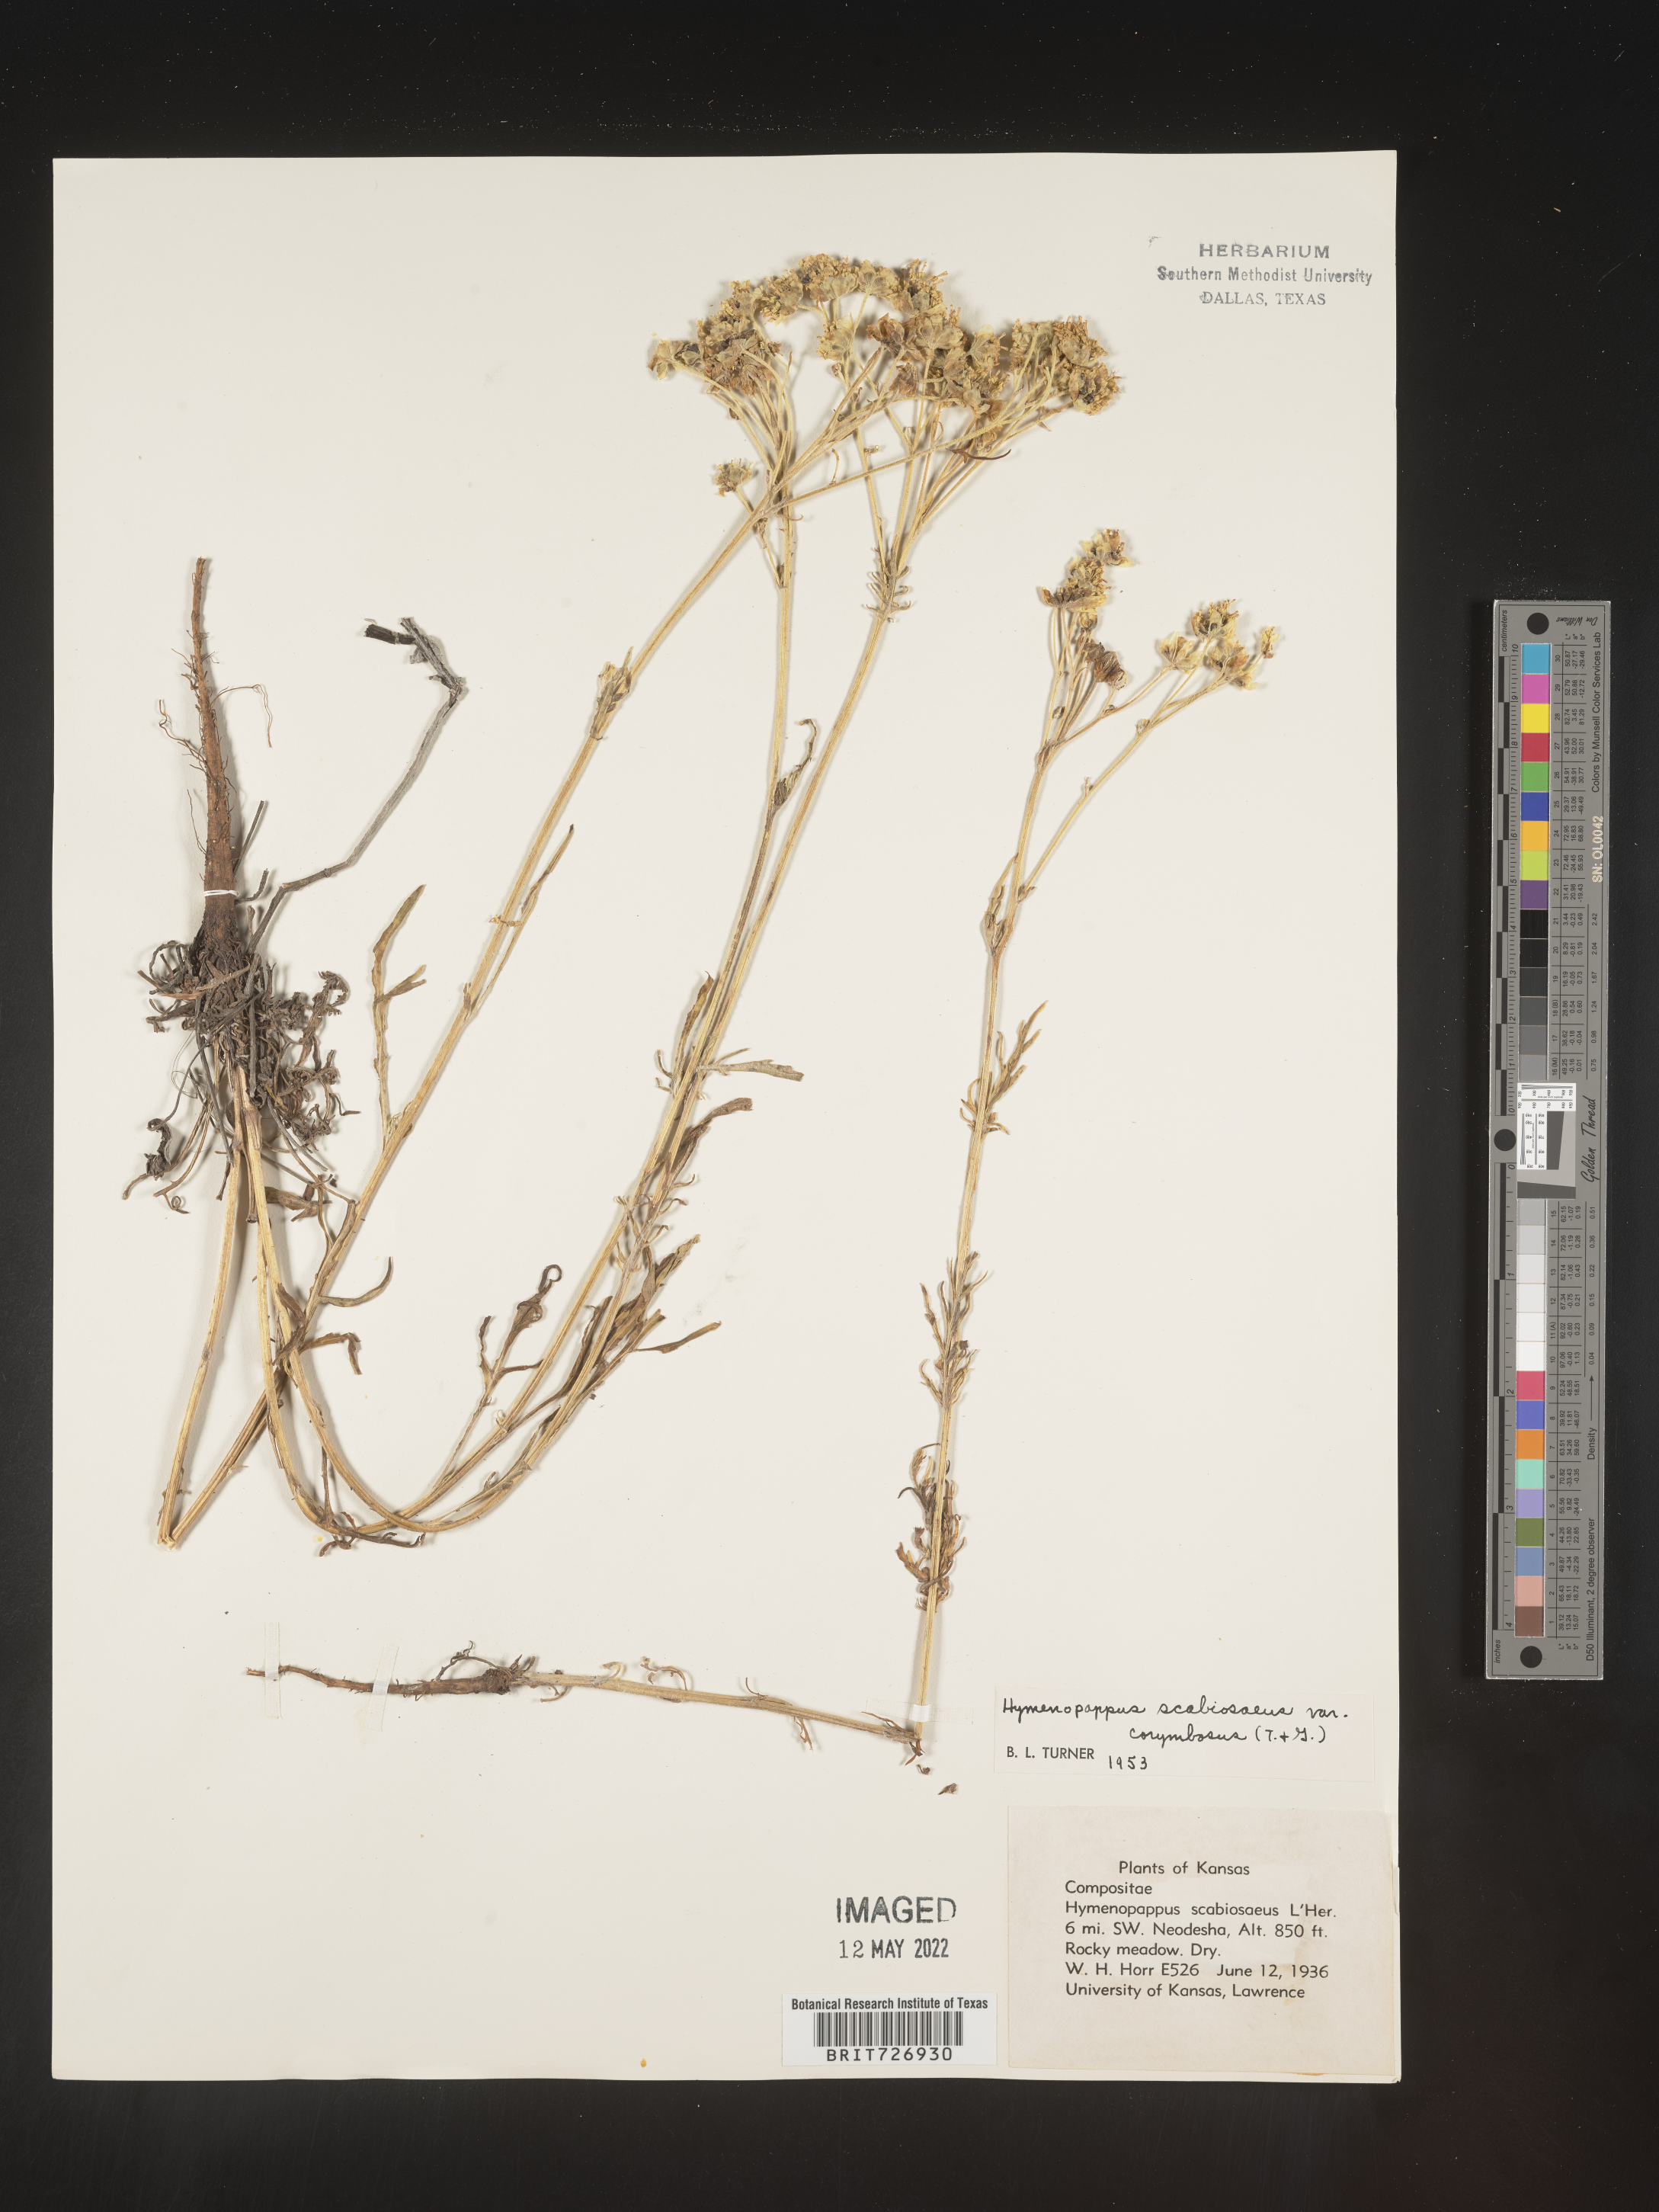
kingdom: Plantae
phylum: Tracheophyta
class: Magnoliopsida
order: Asterales
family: Asteraceae
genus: Hymenopappus
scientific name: Hymenopappus scabiosaeus
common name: Carolina woollywhite
